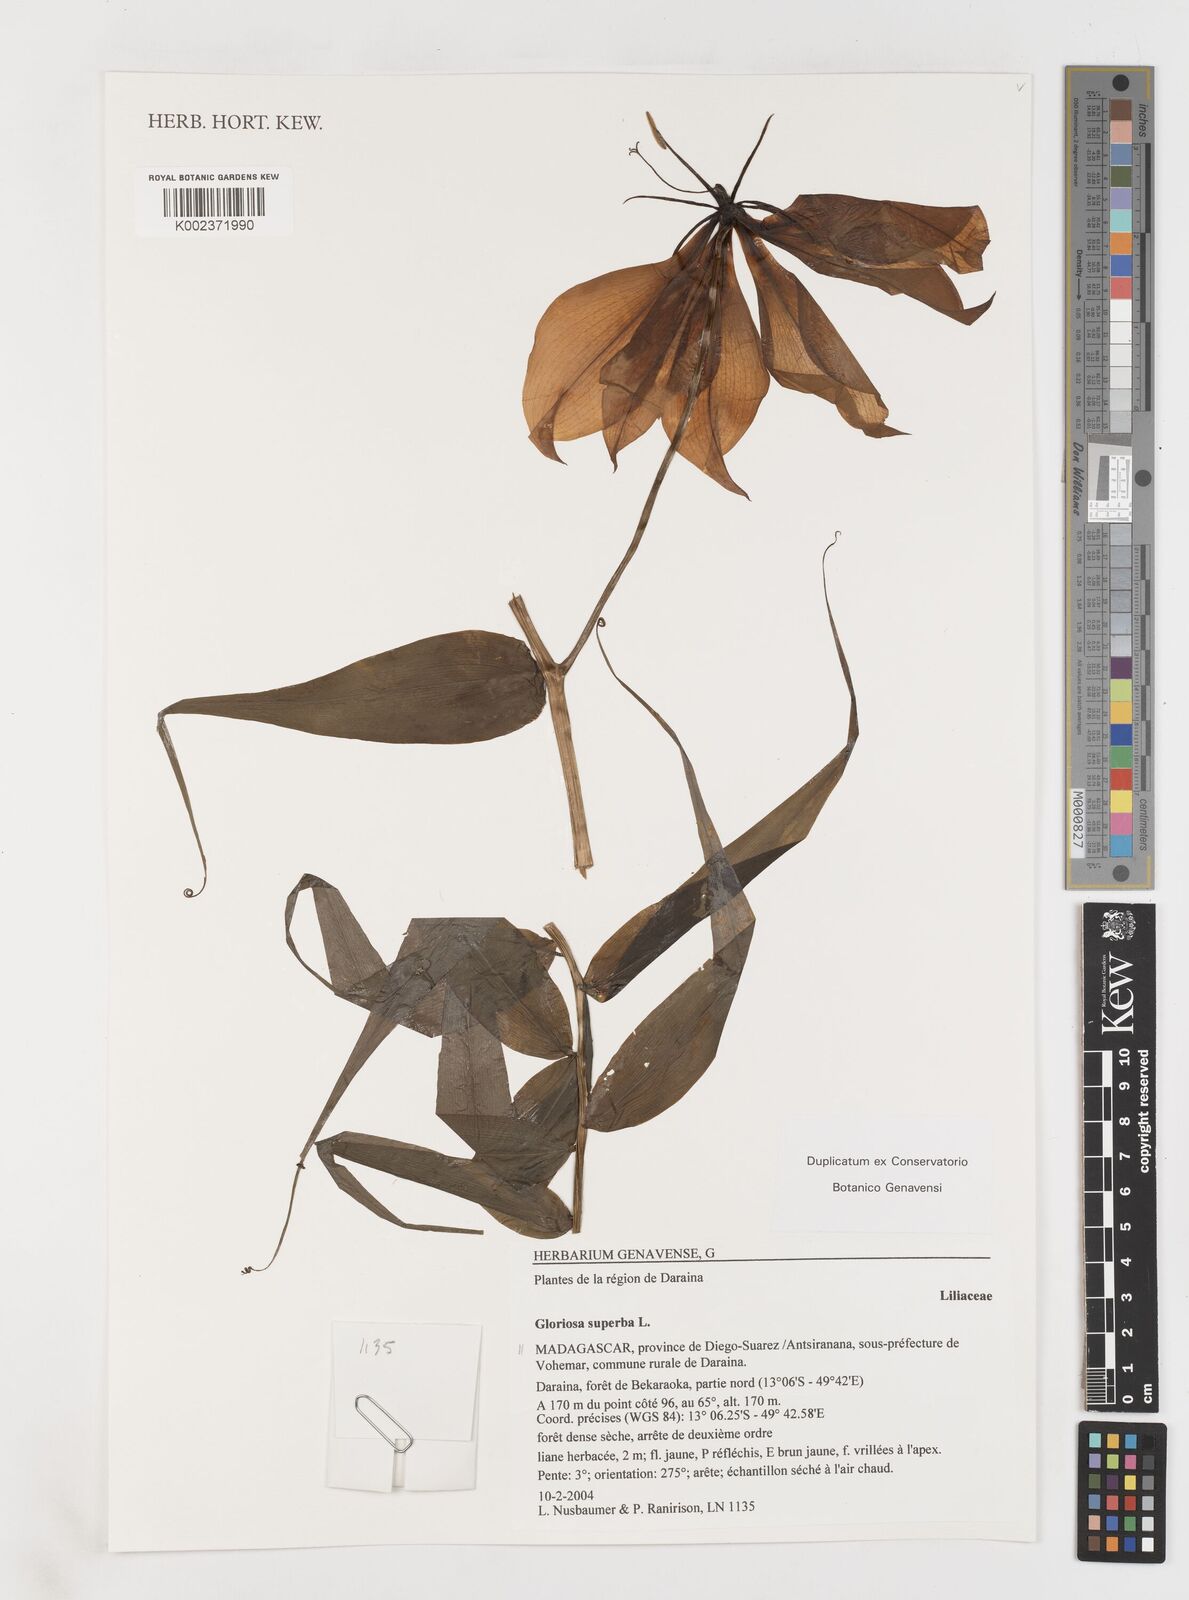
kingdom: Plantae
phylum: Tracheophyta
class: Liliopsida
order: Liliales
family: Colchicaceae
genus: Gloriosa
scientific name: Gloriosa simplex
